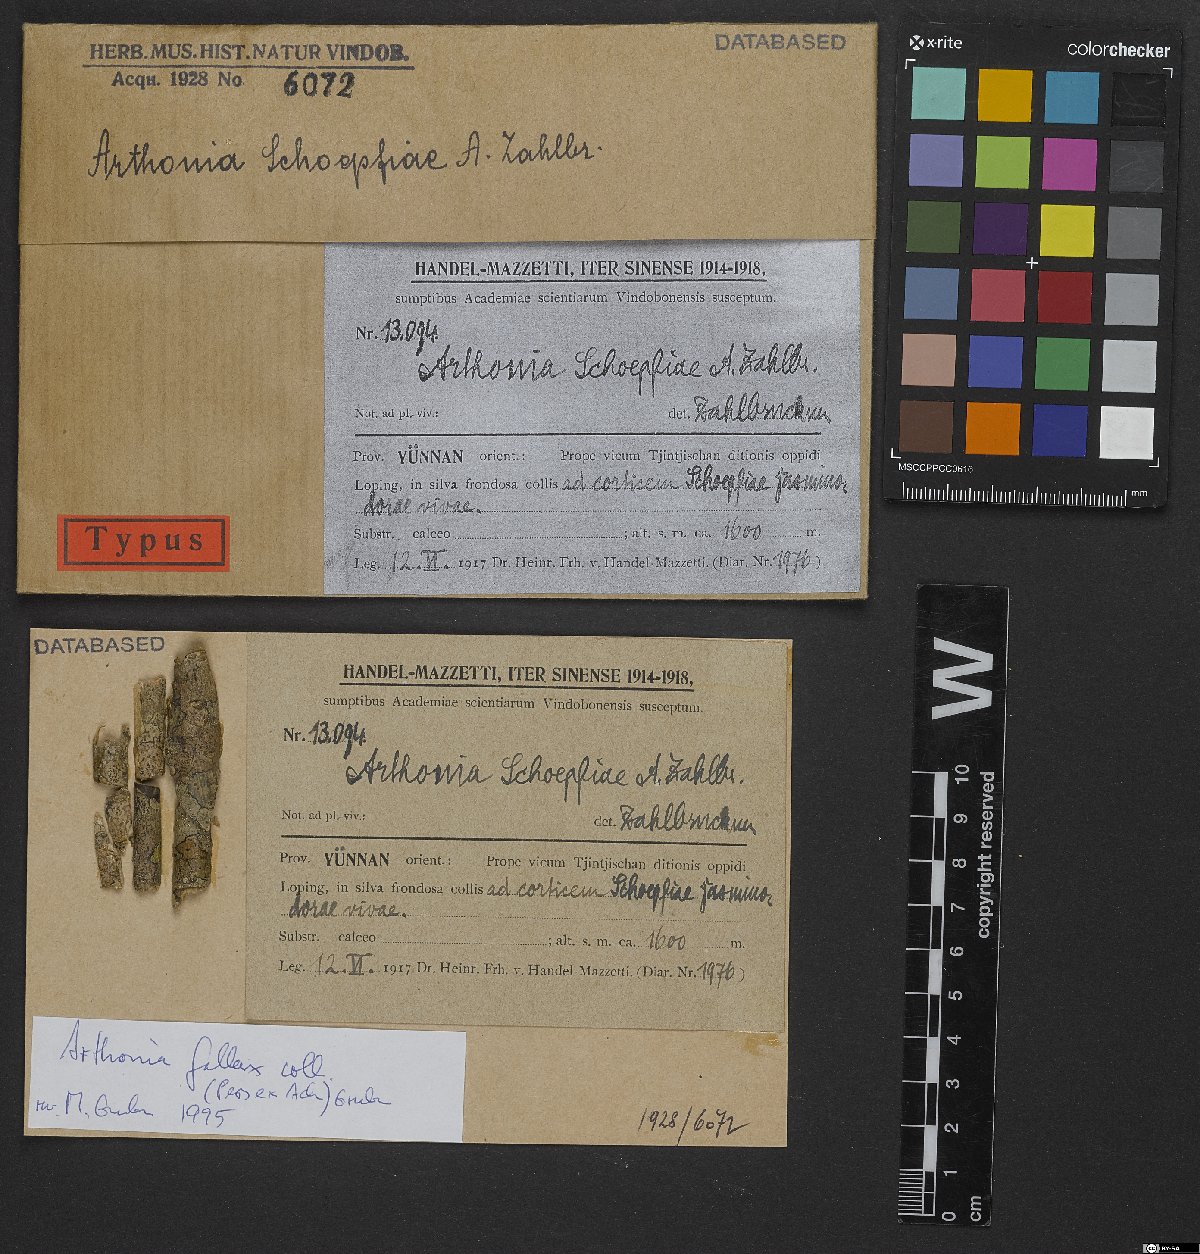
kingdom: Fungi
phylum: Ascomycota
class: Arthoniomycetes
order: Arthoniales
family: Arthoniaceae
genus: Arthonia
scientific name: Arthonia
